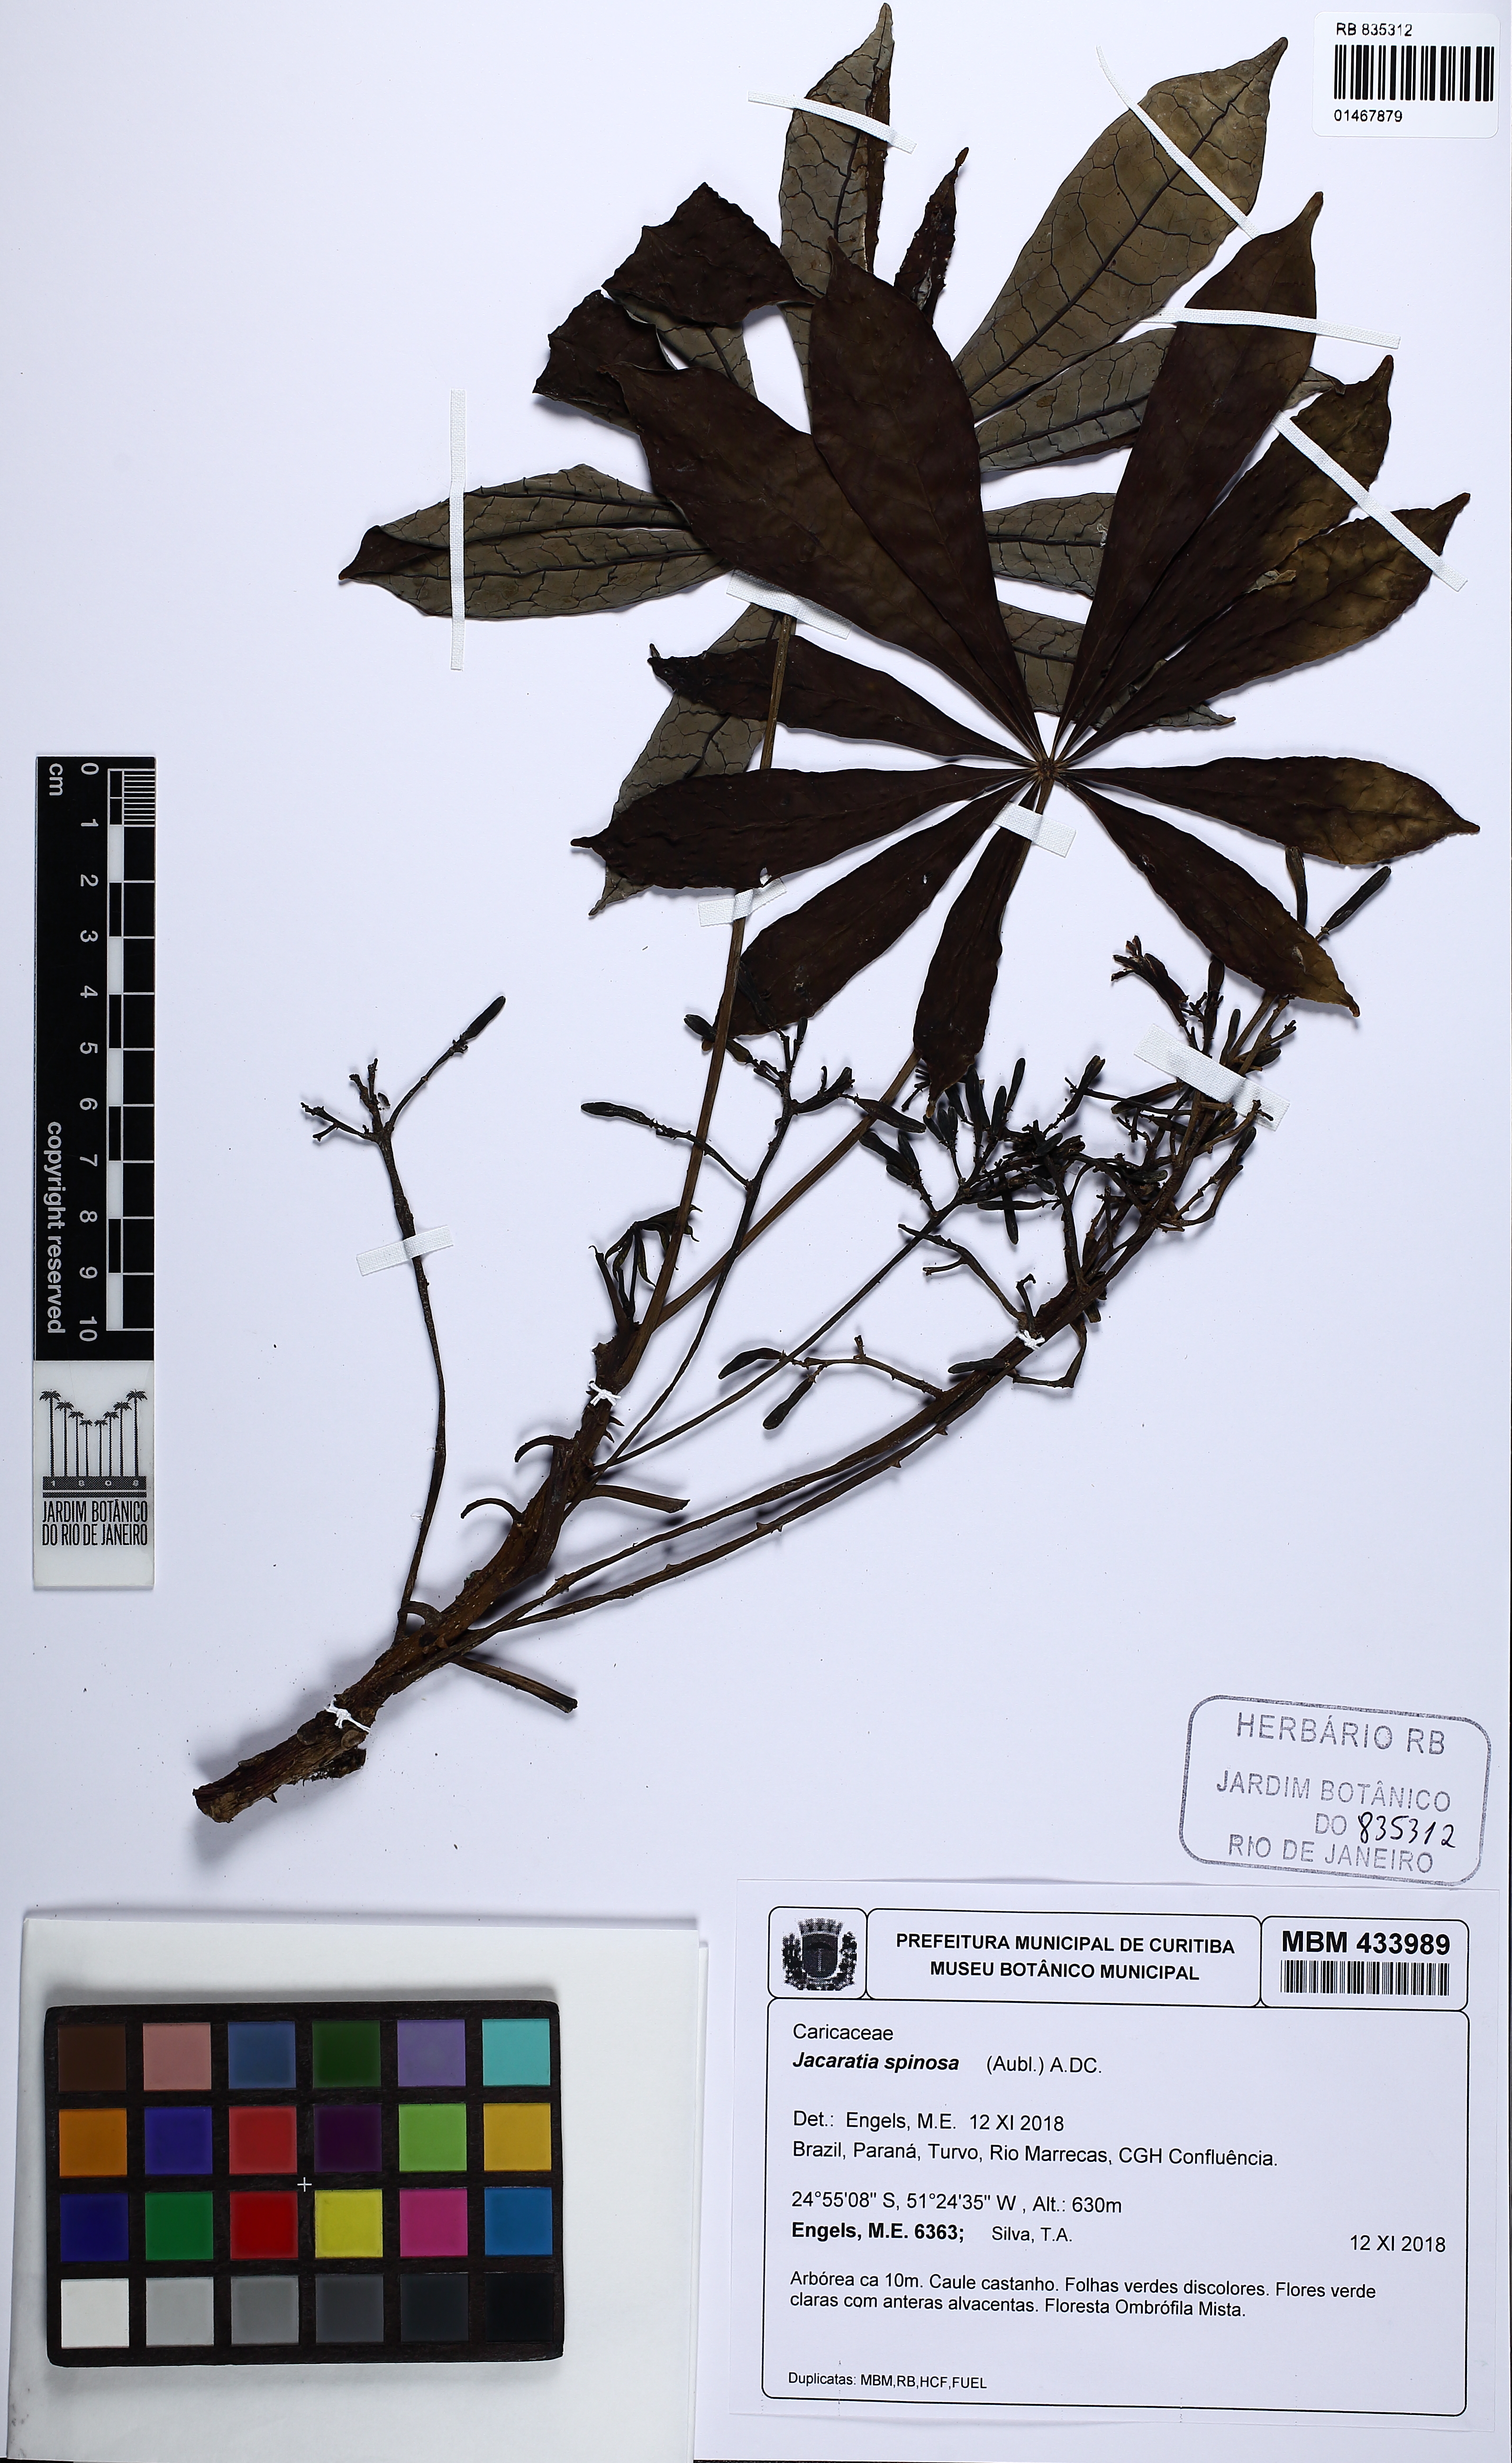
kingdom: Plantae
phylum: Tracheophyta
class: Magnoliopsida
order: Brassicales
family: Caricaceae
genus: Jacaratia
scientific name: Jacaratia spinosa
